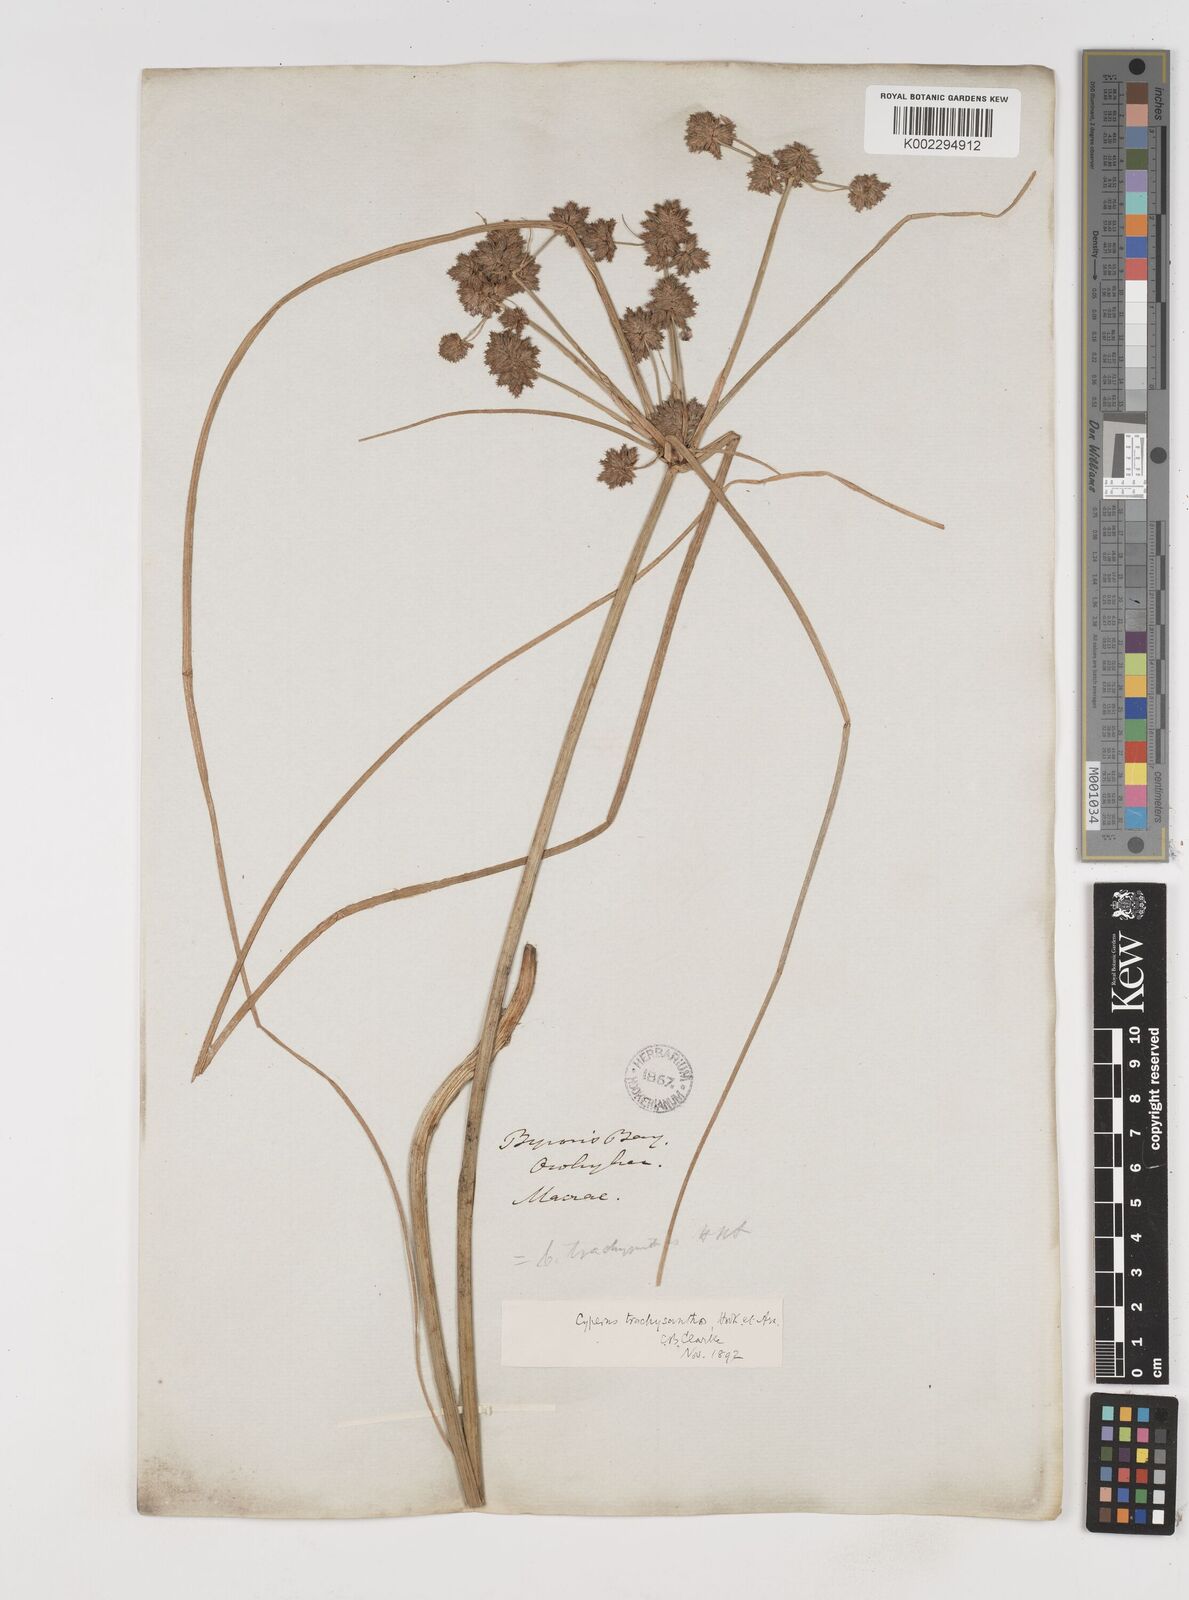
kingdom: Plantae
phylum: Tracheophyta
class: Liliopsida
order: Poales
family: Cyperaceae
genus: Cyperus
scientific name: Cyperus trachysanthos
